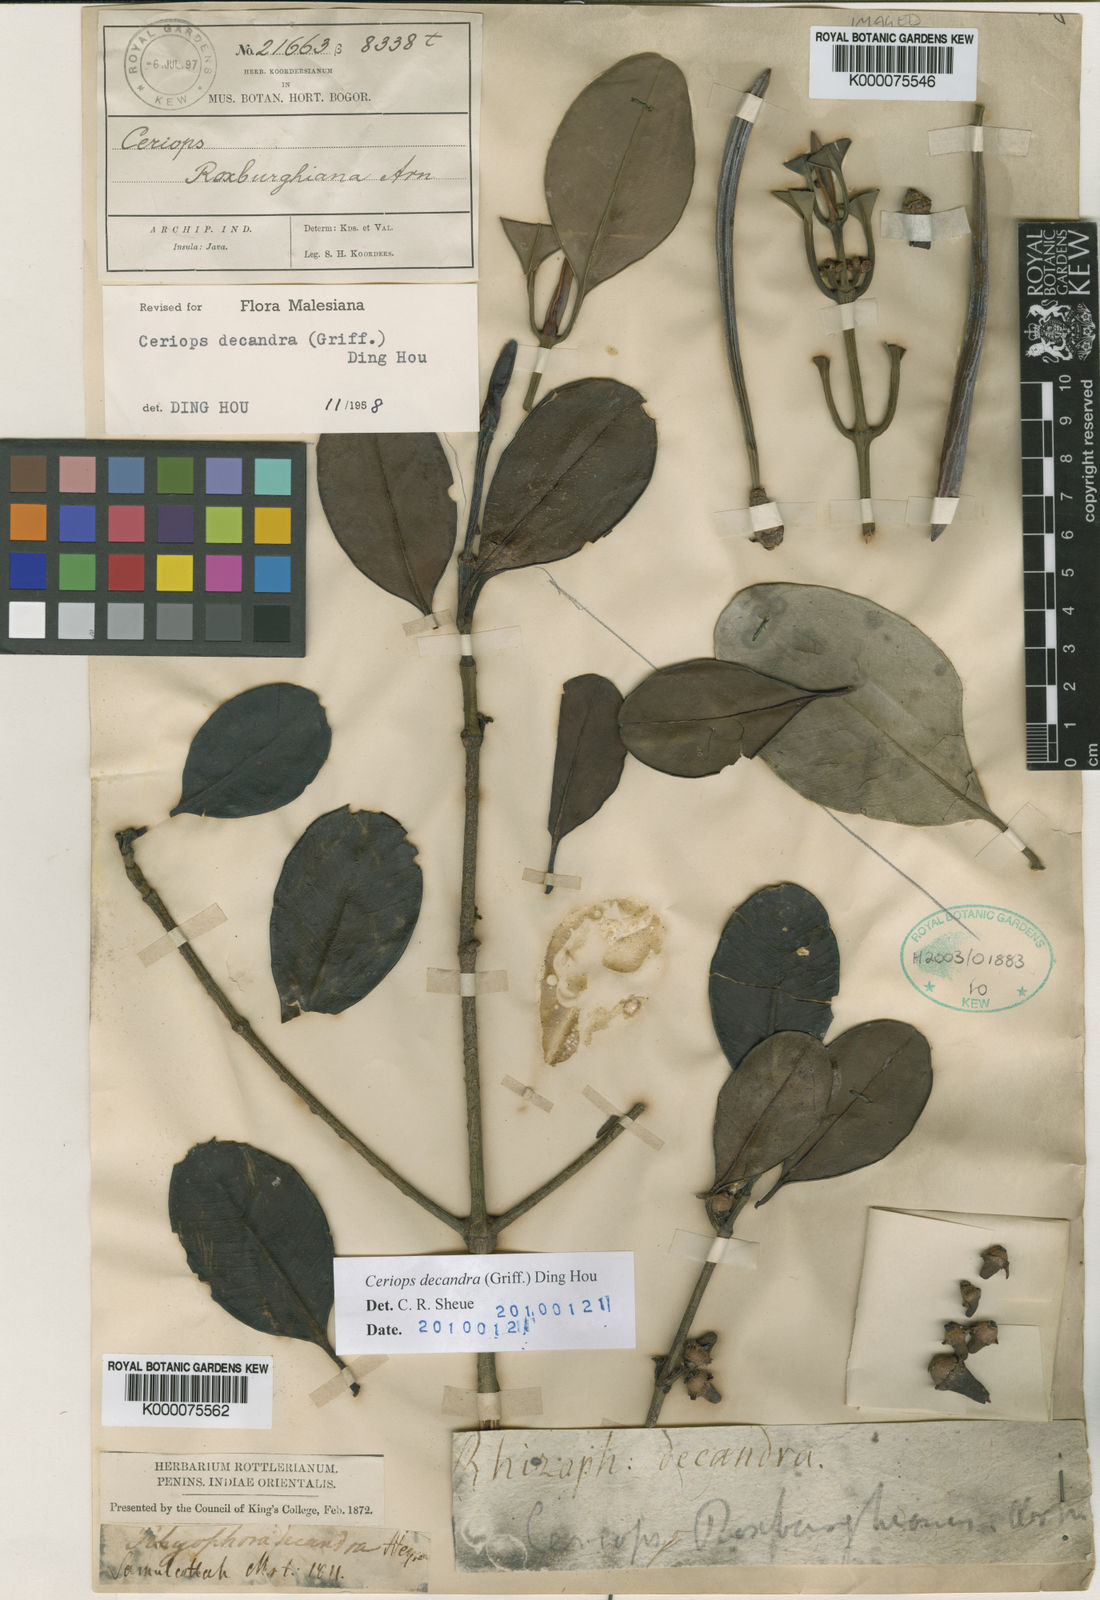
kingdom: Plantae
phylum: Tracheophyta
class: Magnoliopsida
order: Malpighiales
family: Rhizophoraceae
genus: Ceriops
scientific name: Ceriops decandra
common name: Flat-leaf spurred mangrove
